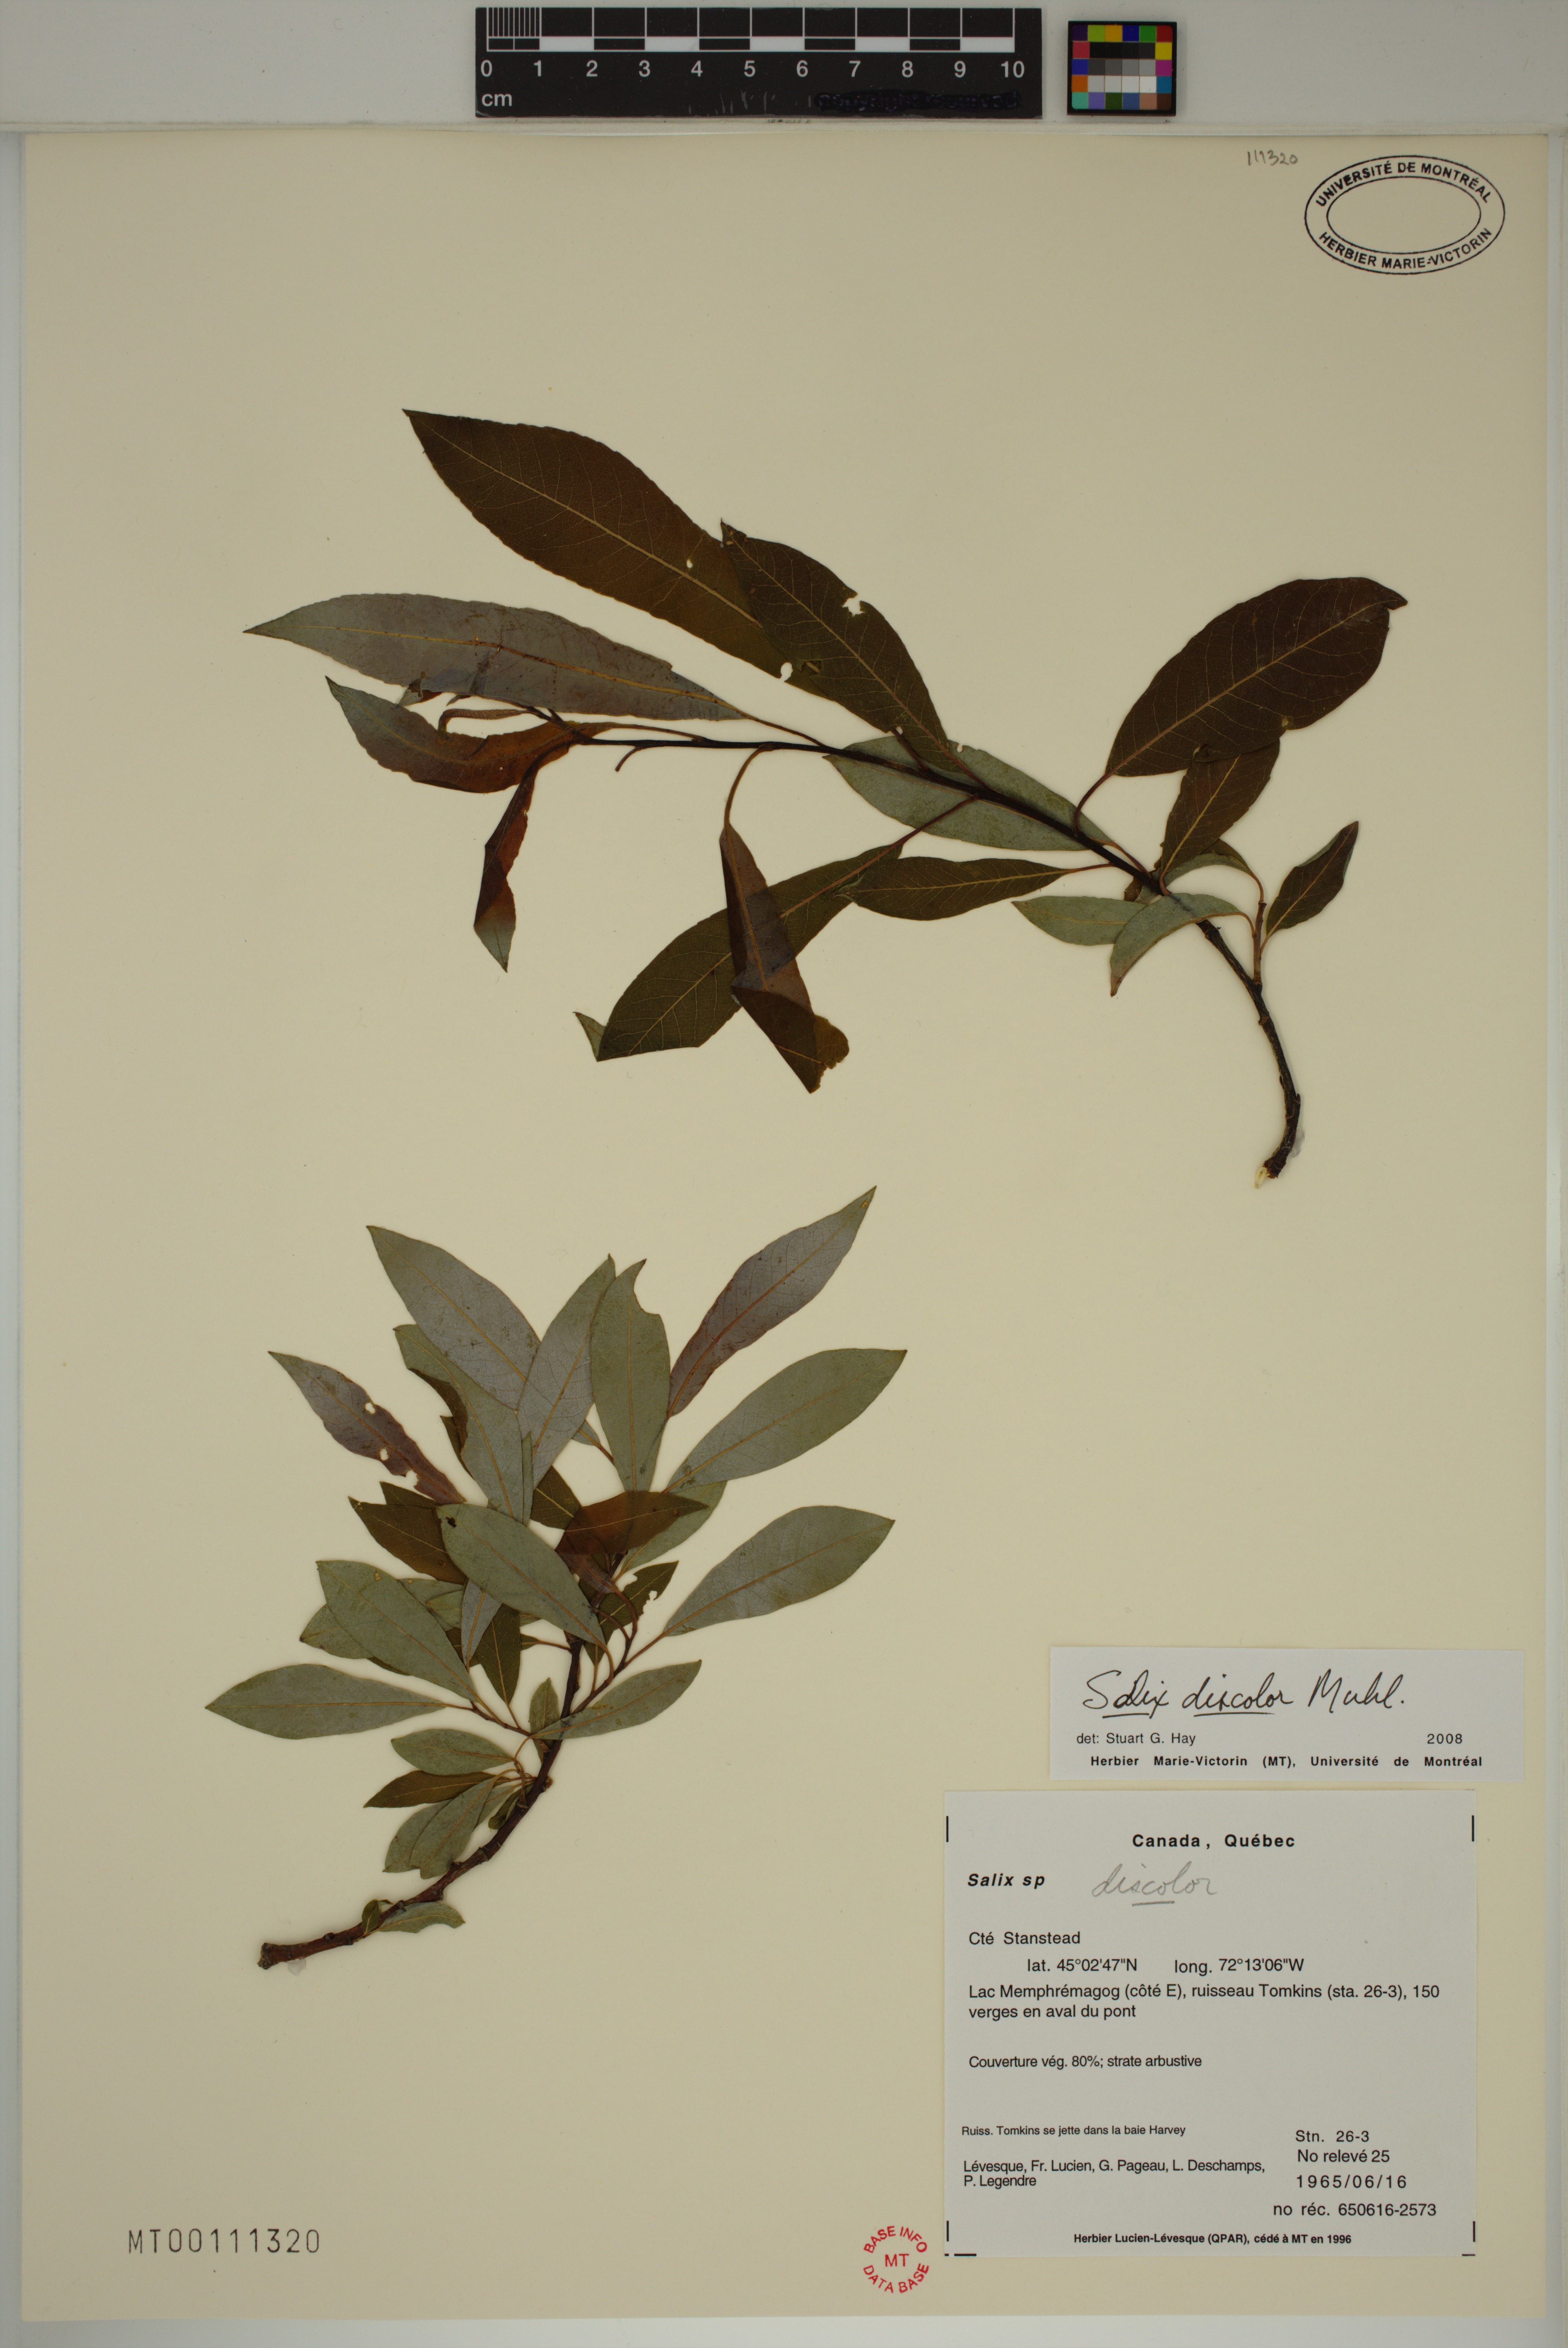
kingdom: Plantae
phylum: Tracheophyta
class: Magnoliopsida
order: Malpighiales
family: Salicaceae
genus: Salix
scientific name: Salix discolor
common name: Glaucous willow
